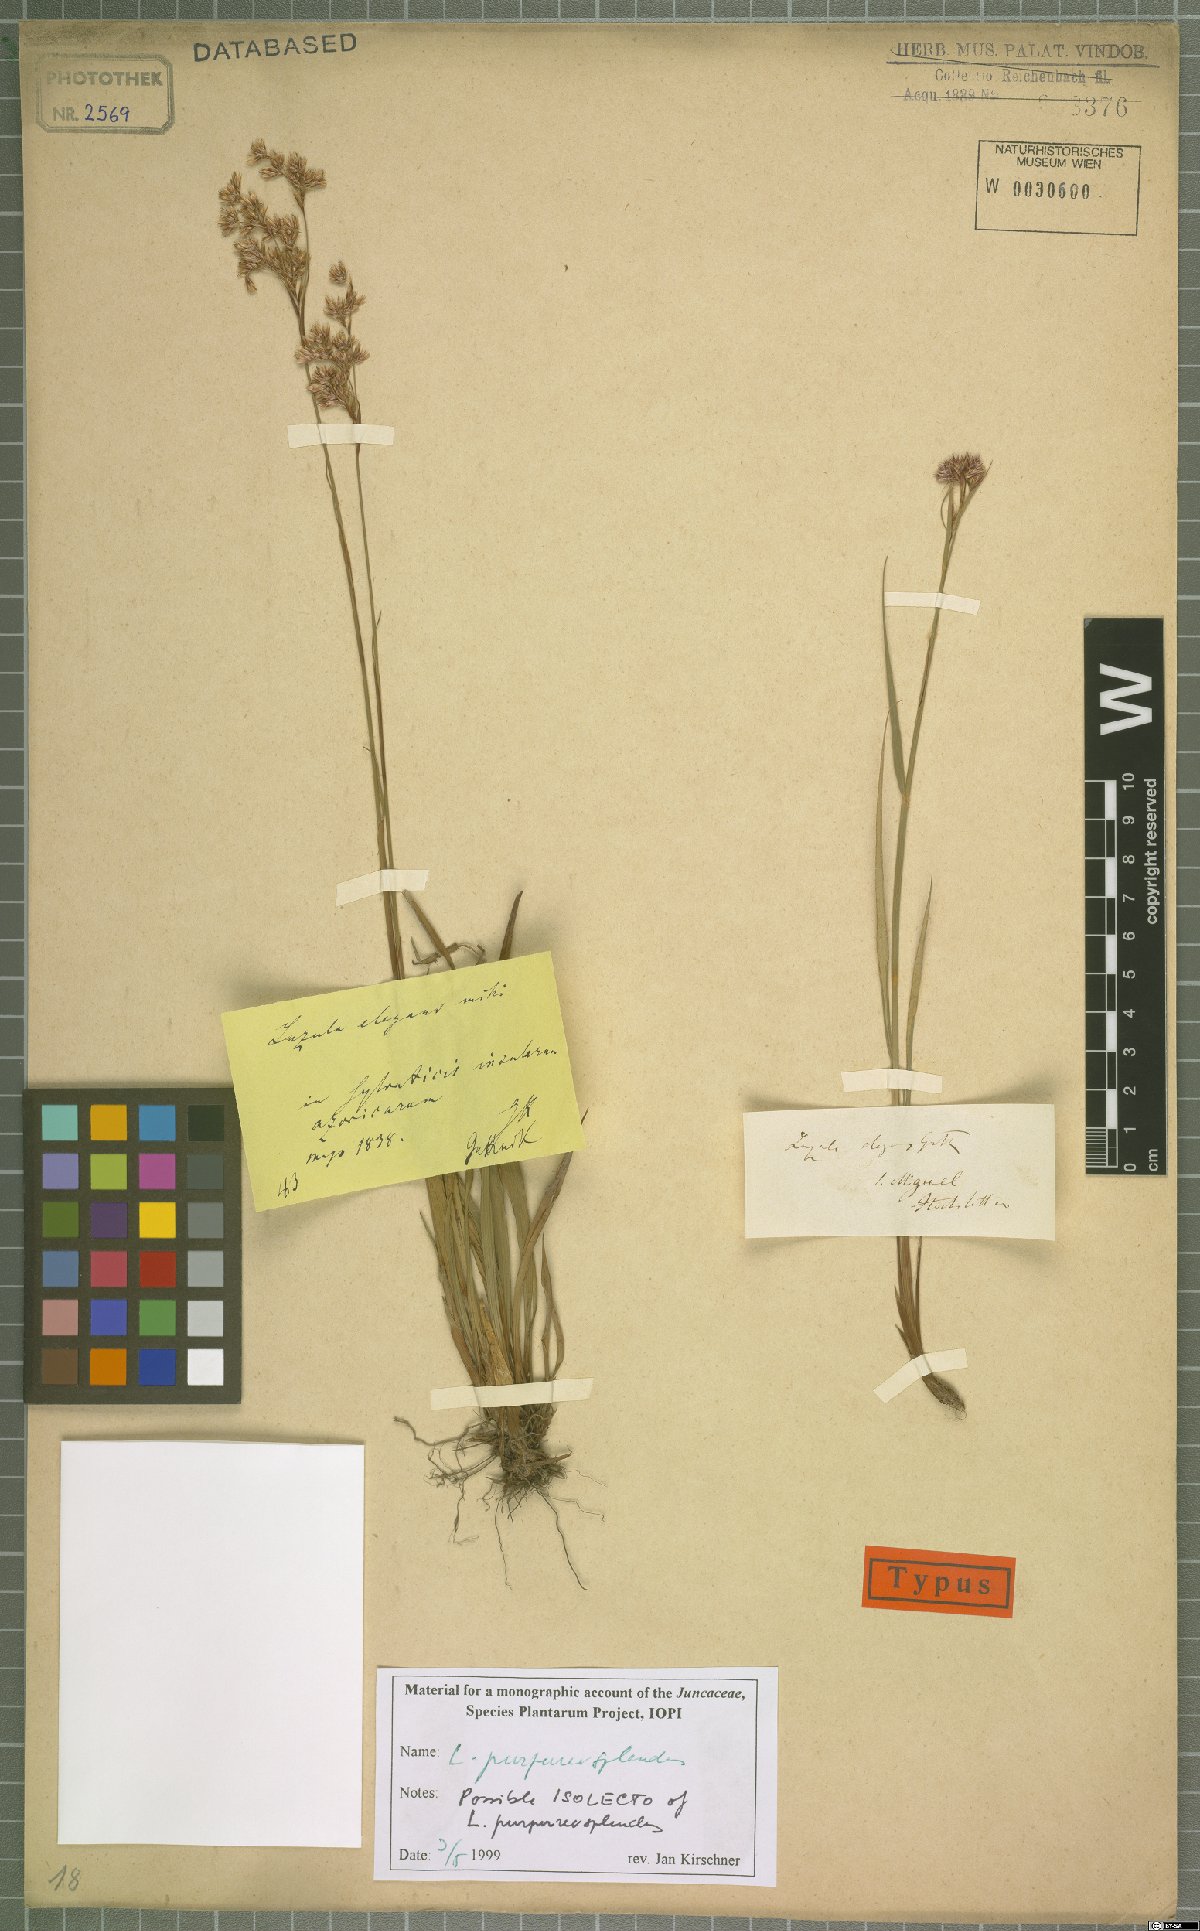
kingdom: Plantae
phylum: Tracheophyta
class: Liliopsida
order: Poales
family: Juncaceae
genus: Luzula
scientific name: Luzula purpureosplendens
